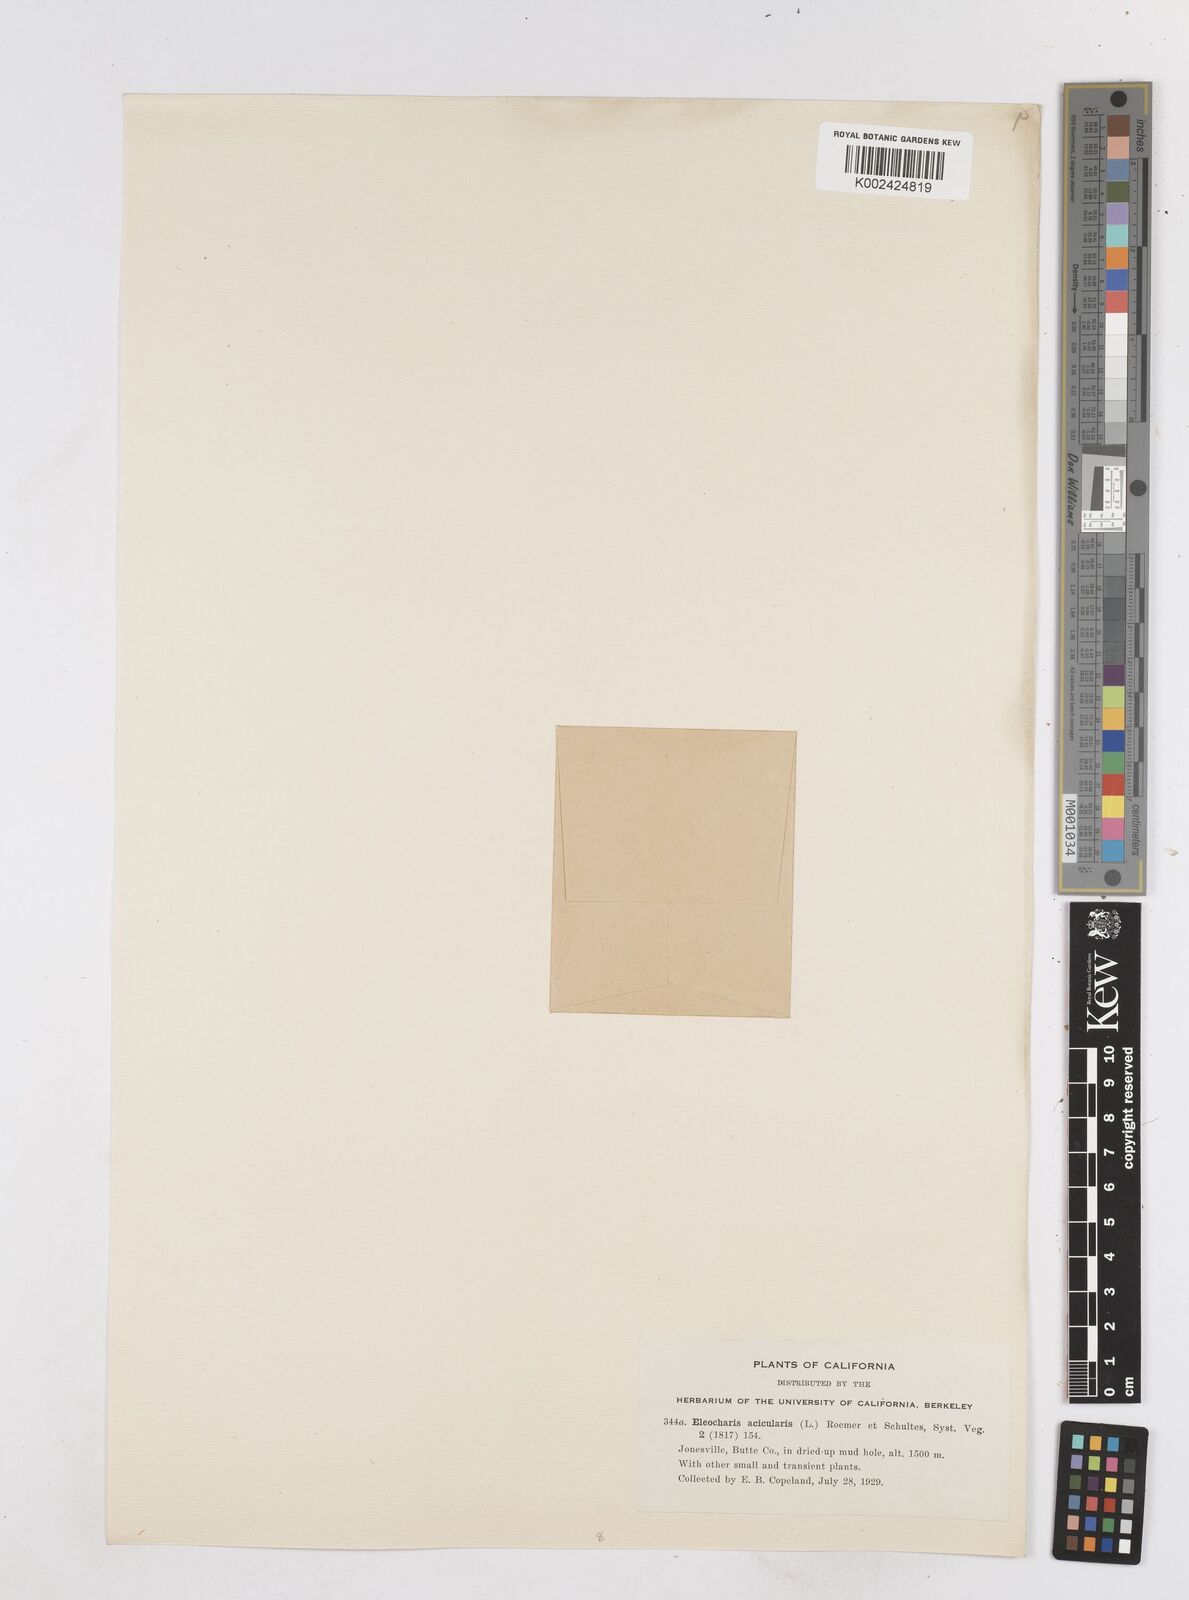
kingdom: Plantae
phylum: Tracheophyta
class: Liliopsida
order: Poales
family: Cyperaceae
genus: Eleocharis
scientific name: Eleocharis acicularis
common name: Needle spike-rush
